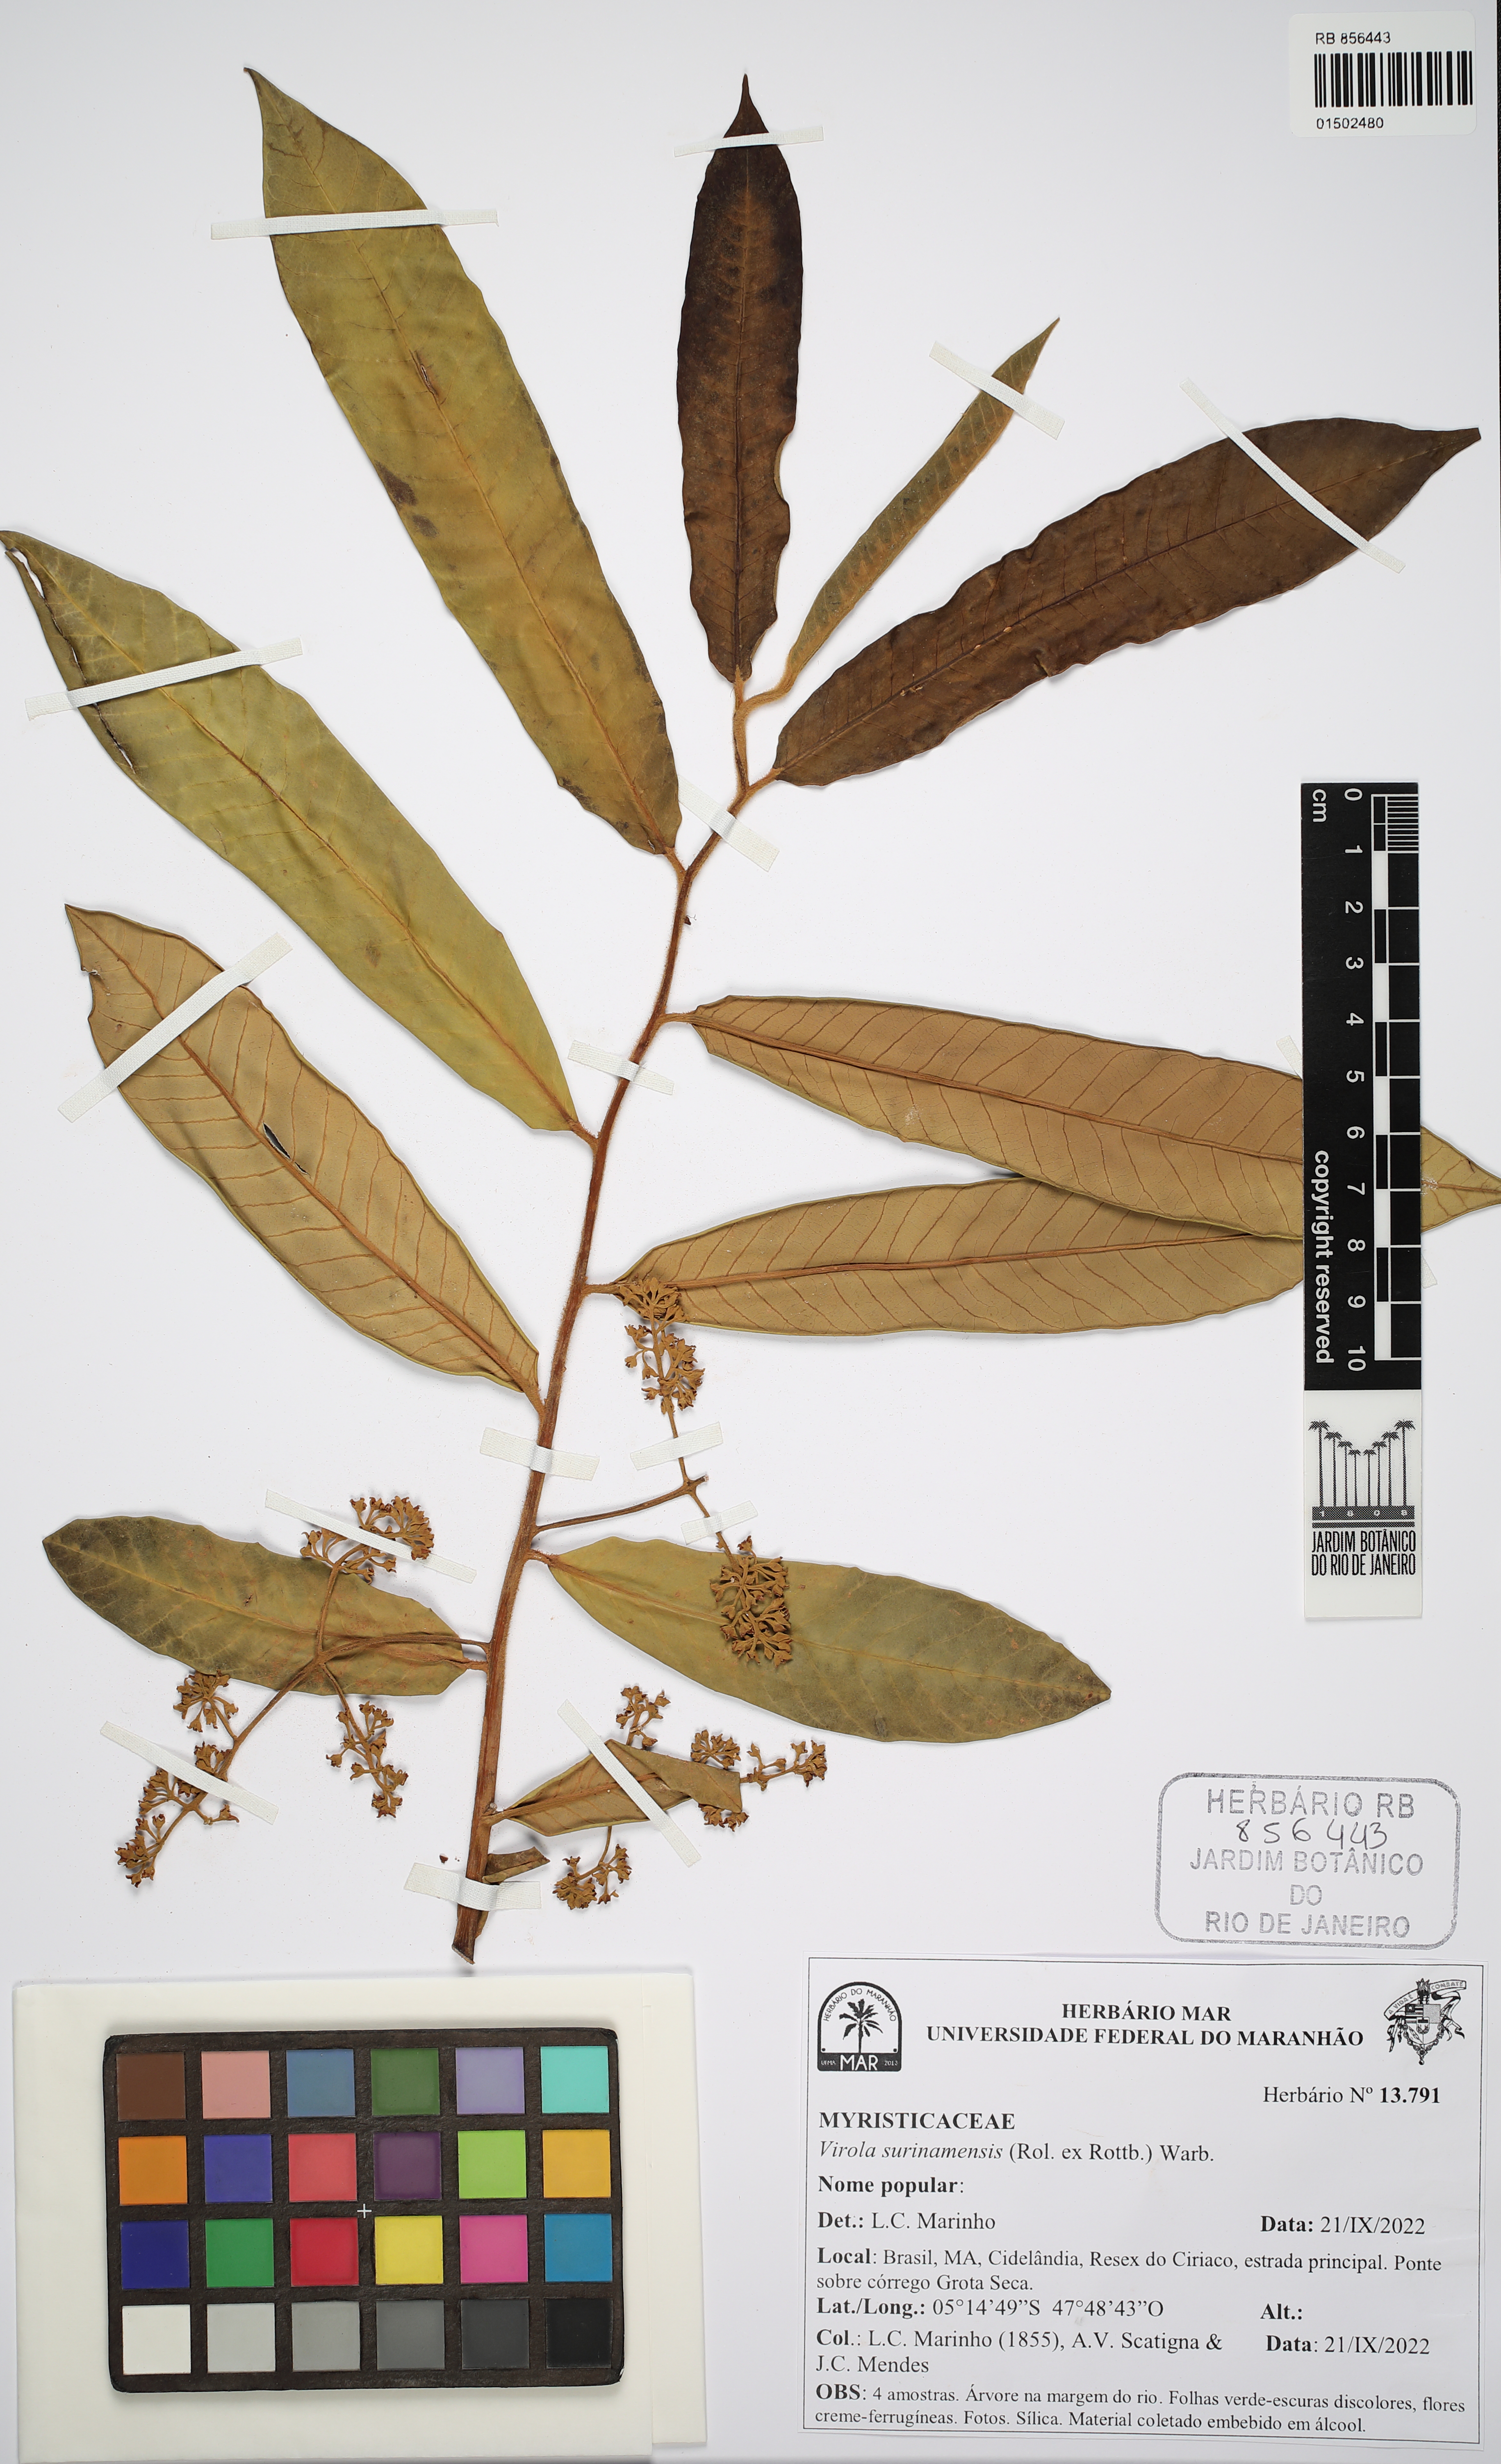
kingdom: Plantae
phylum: Tracheophyta
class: Magnoliopsida
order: Magnoliales
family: Myristicaceae
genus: Virola
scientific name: Virola surinamensis
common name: Baboonwood
